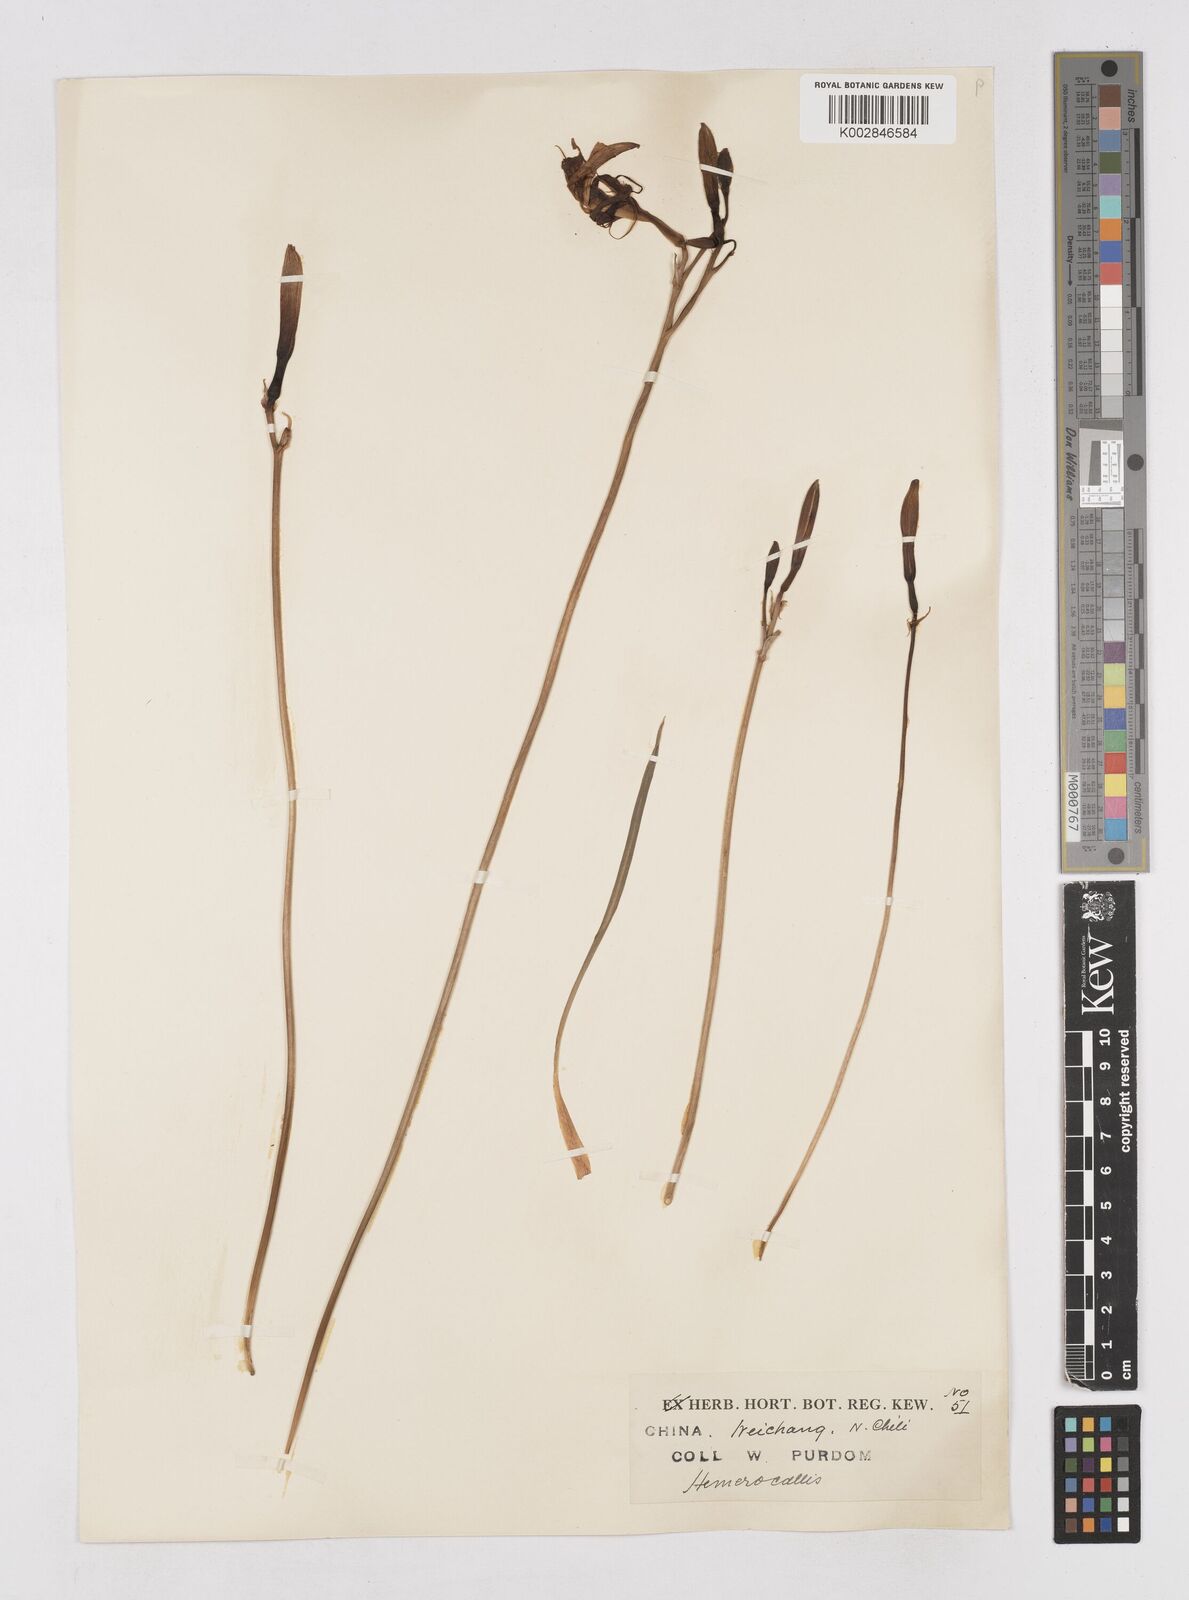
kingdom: Plantae
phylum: Tracheophyta
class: Liliopsida
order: Asparagales
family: Asphodelaceae
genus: Hemerocallis
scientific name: Hemerocallis minor
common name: Small daylily
